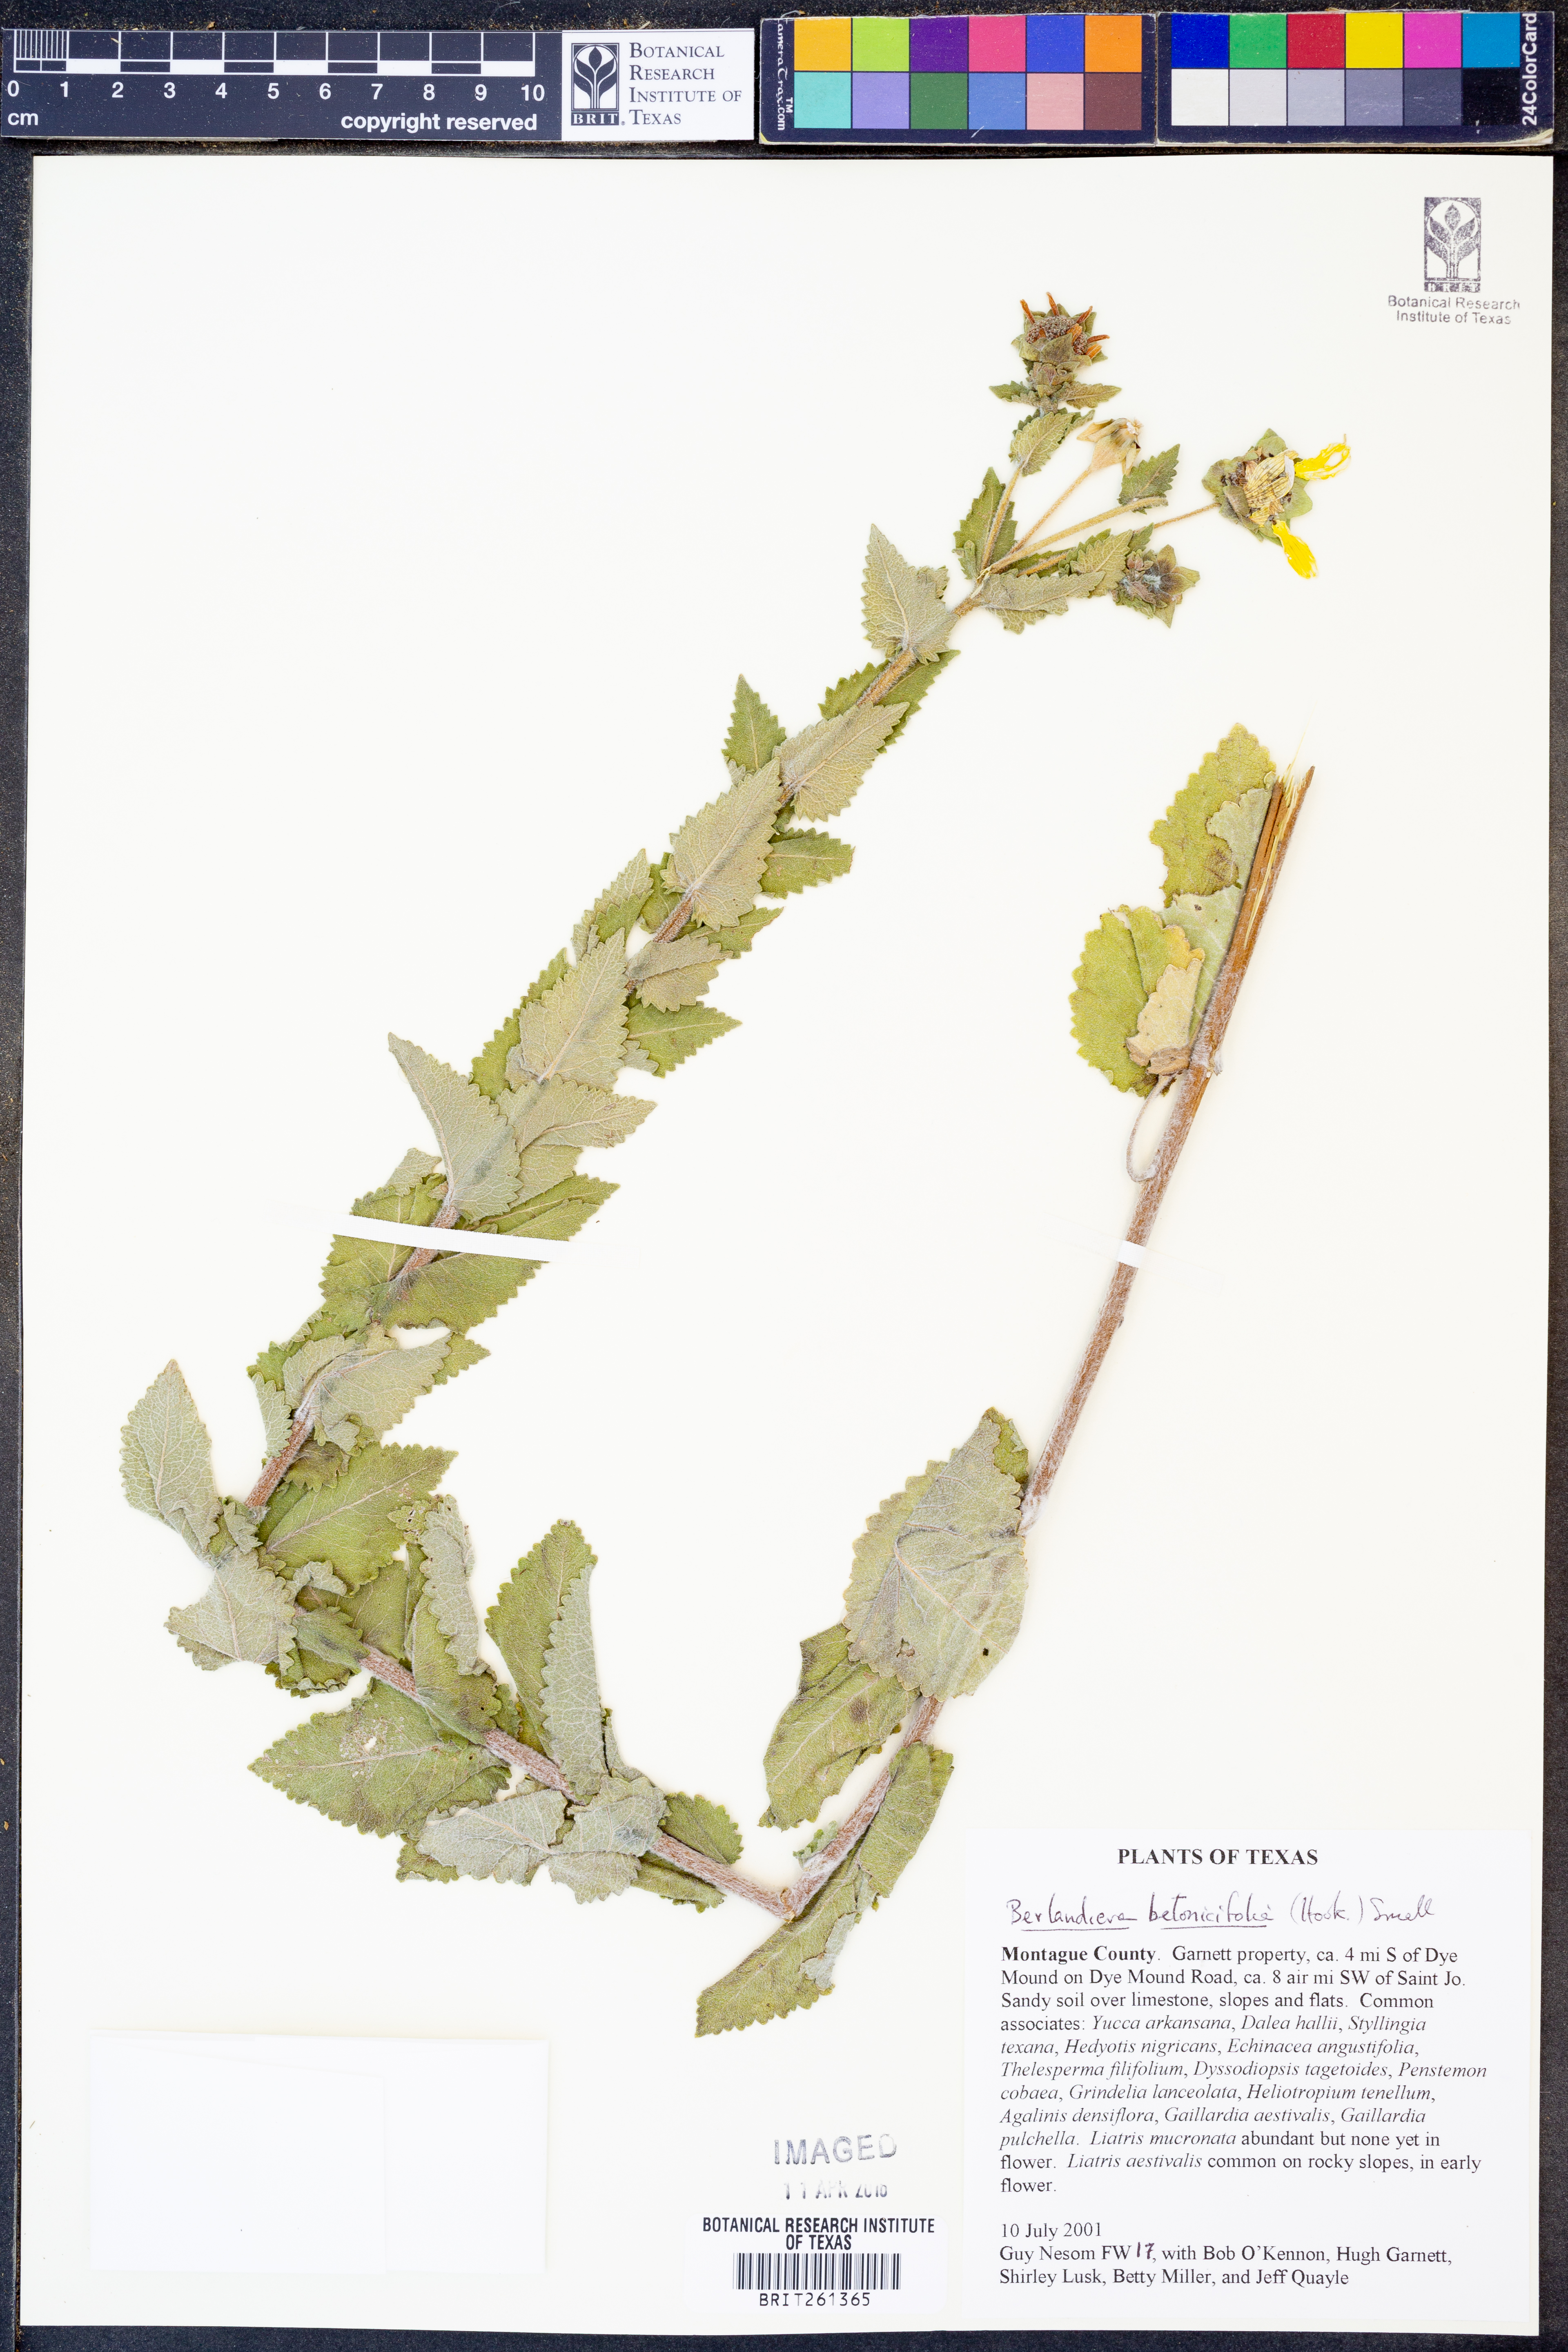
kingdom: Plantae
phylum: Tracheophyta
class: Magnoliopsida
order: Asterales
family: Asteraceae
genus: Berlandiera
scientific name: Berlandiera betonicifolia
